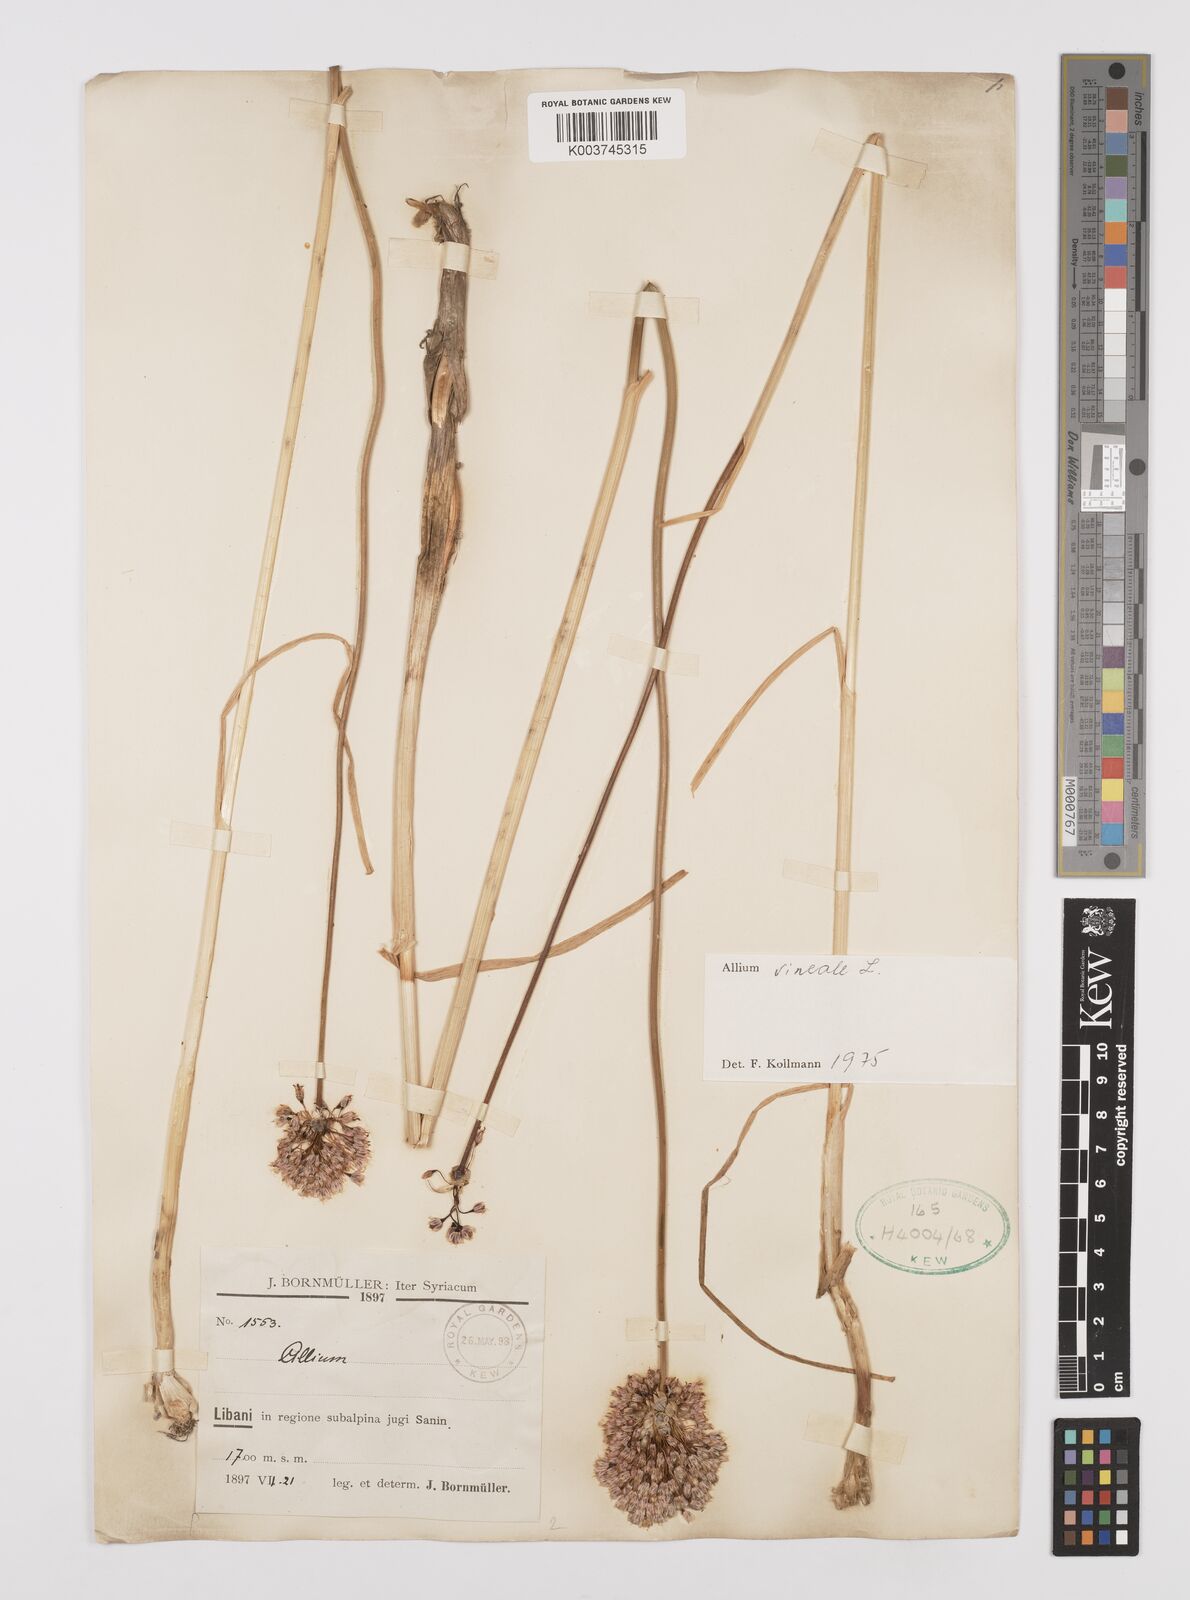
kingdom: Plantae
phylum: Tracheophyta
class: Liliopsida
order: Asparagales
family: Amaryllidaceae
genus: Allium
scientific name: Allium vineale
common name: Crow garlic
